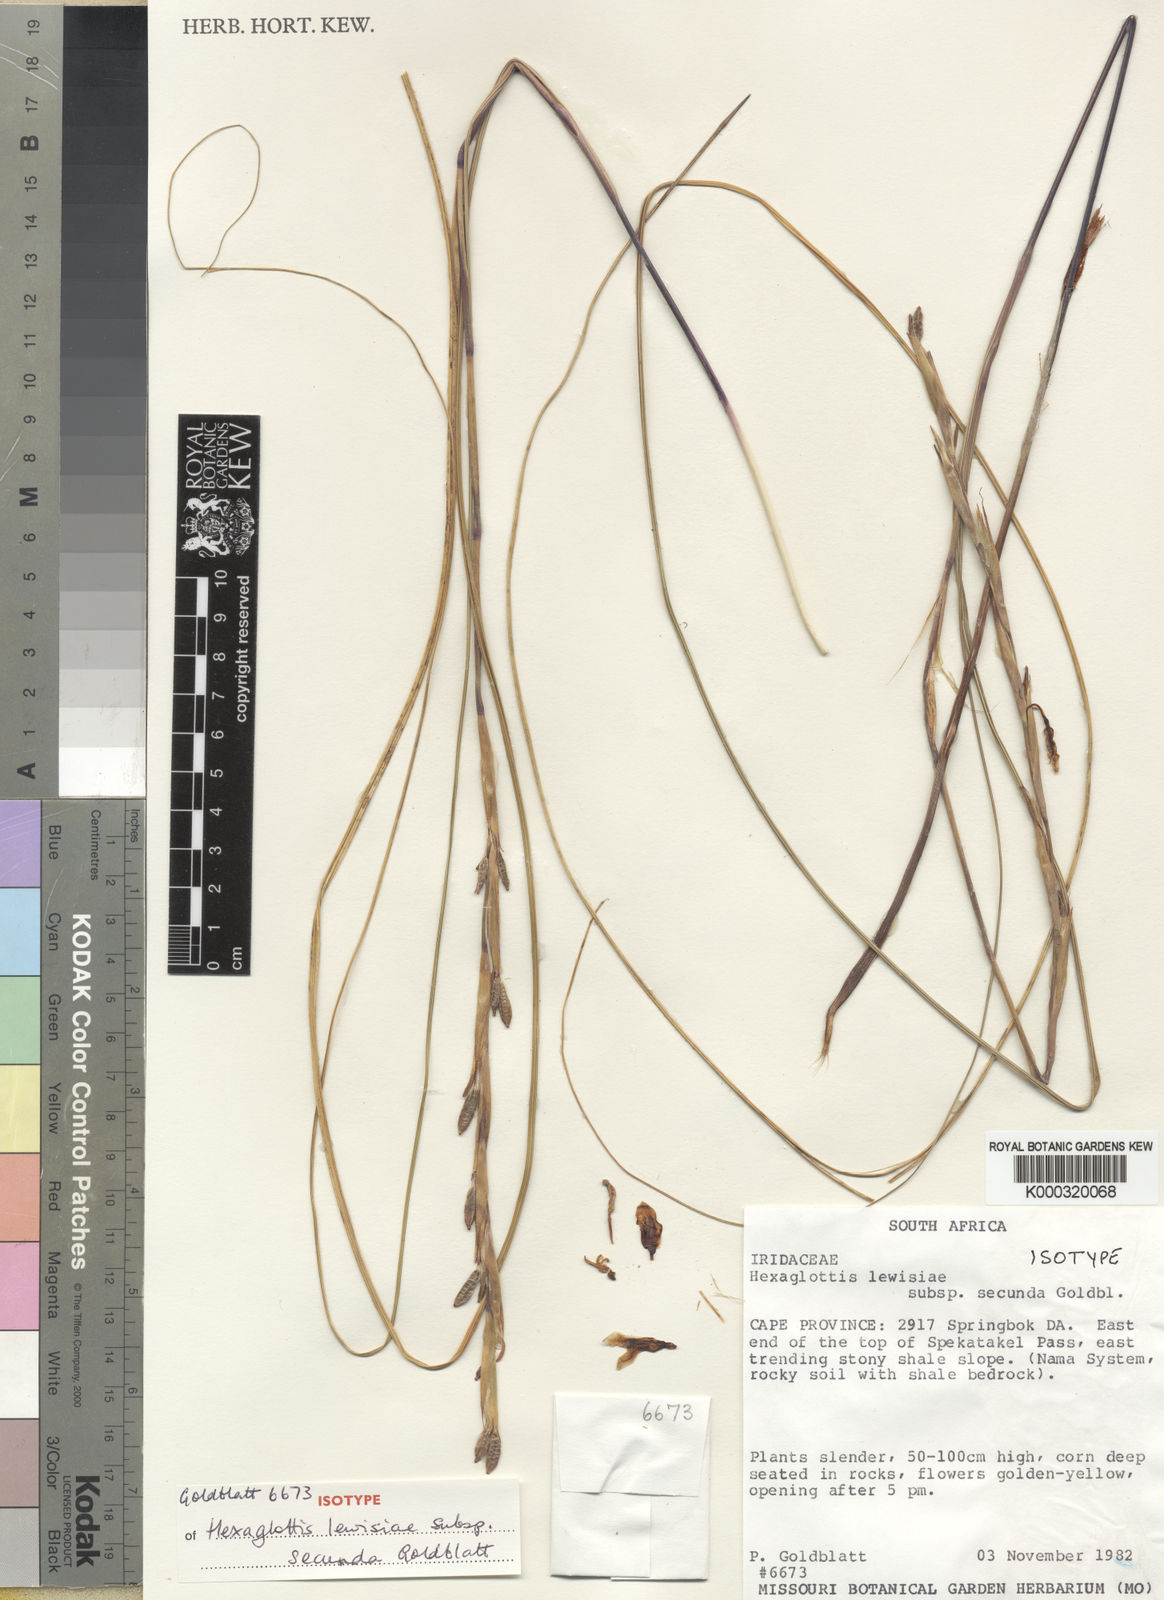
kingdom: Plantae
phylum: Tracheophyta
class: Liliopsida
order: Asparagales
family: Iridaceae
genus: Moraea
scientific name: Moraea lewisiae
